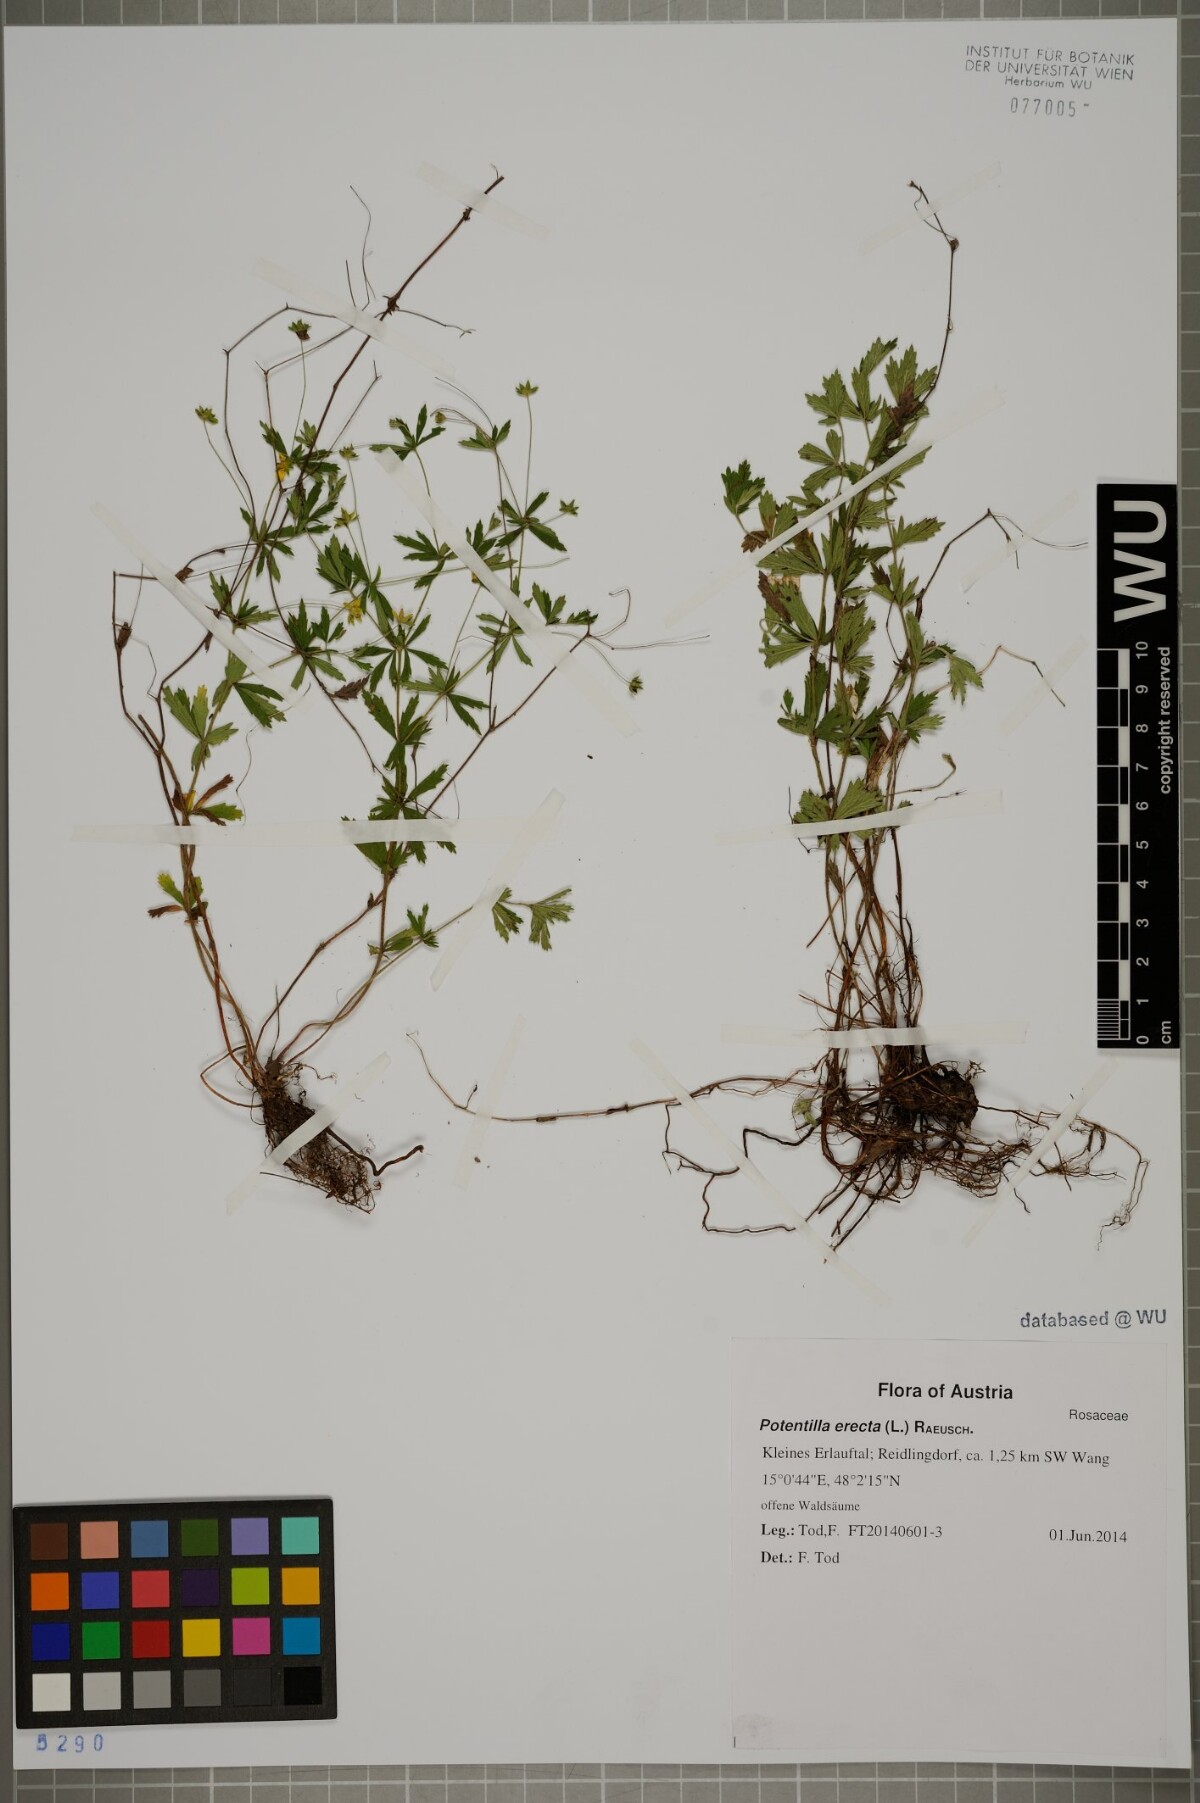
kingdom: Plantae
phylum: Tracheophyta
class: Magnoliopsida
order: Rosales
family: Rosaceae
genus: Potentilla
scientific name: Potentilla erecta
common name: Tormentil
